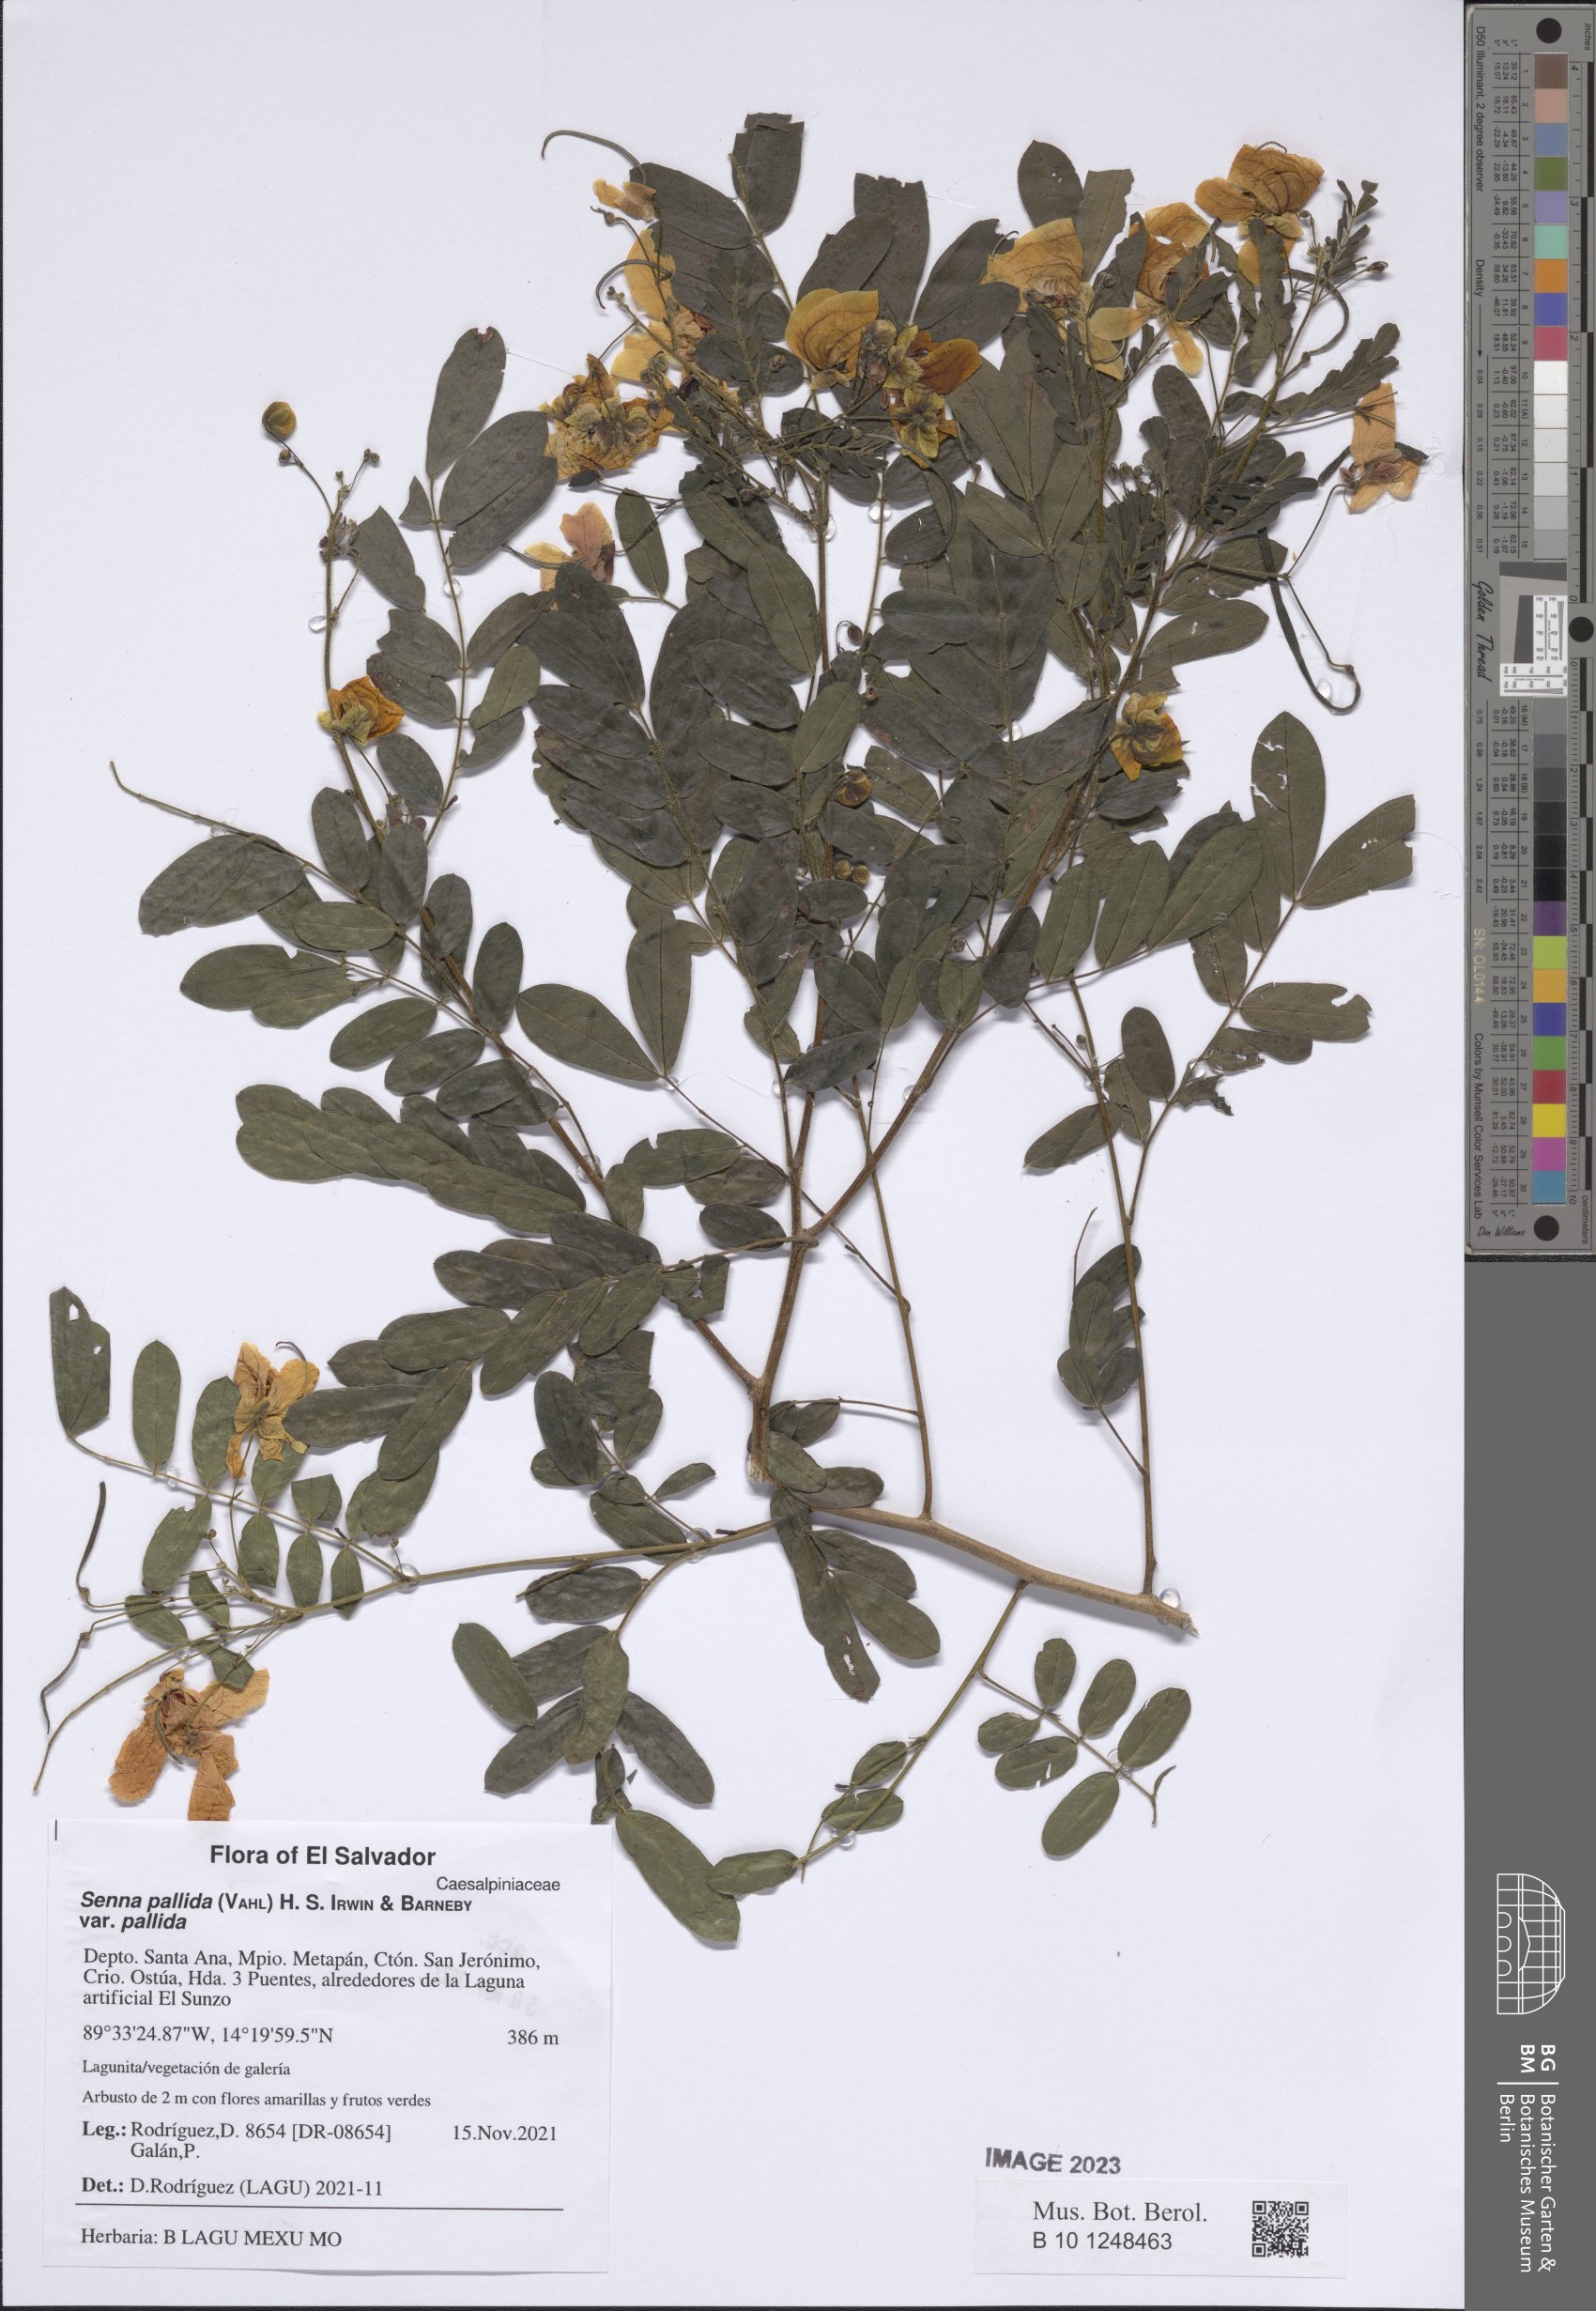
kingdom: Plantae
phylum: Tracheophyta
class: Magnoliopsida
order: Fabales
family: Fabaceae
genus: Senna
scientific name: Senna pallida
